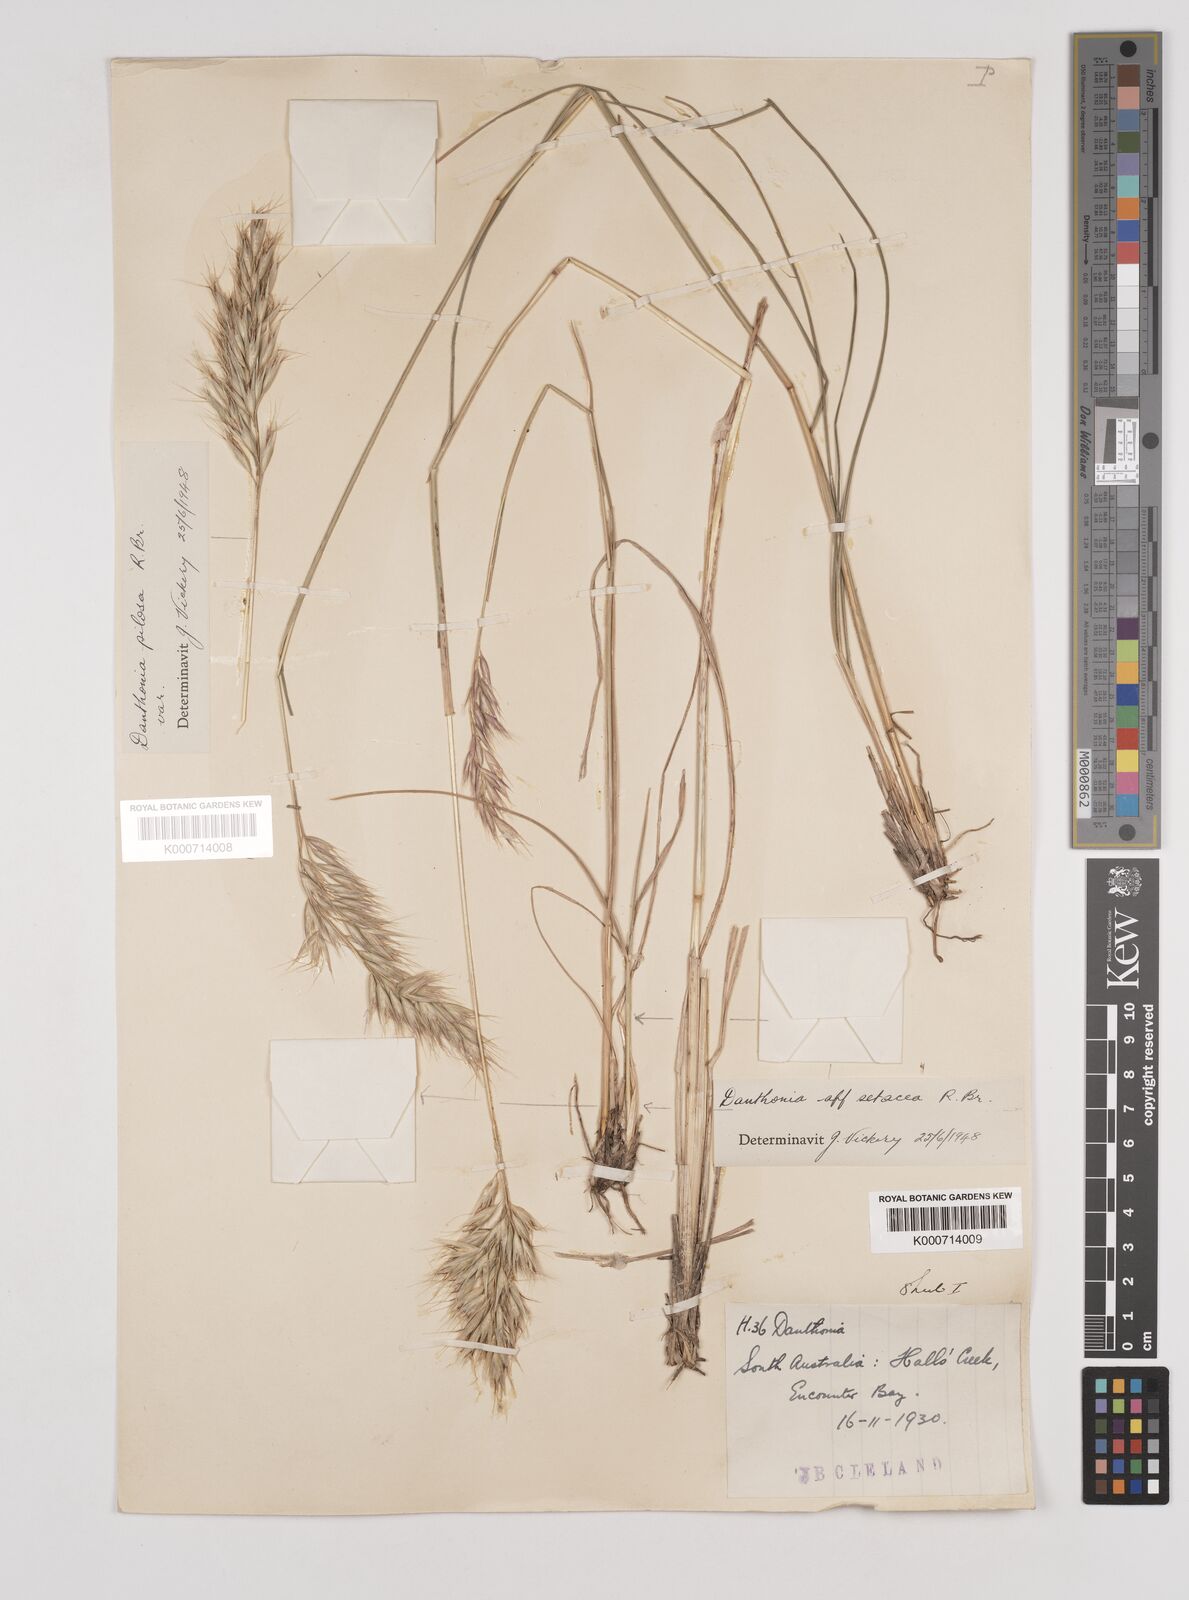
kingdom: Plantae
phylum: Tracheophyta
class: Liliopsida
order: Poales
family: Poaceae
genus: Rytidosperma
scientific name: Rytidosperma pilosum
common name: Hairy wallaby grass
